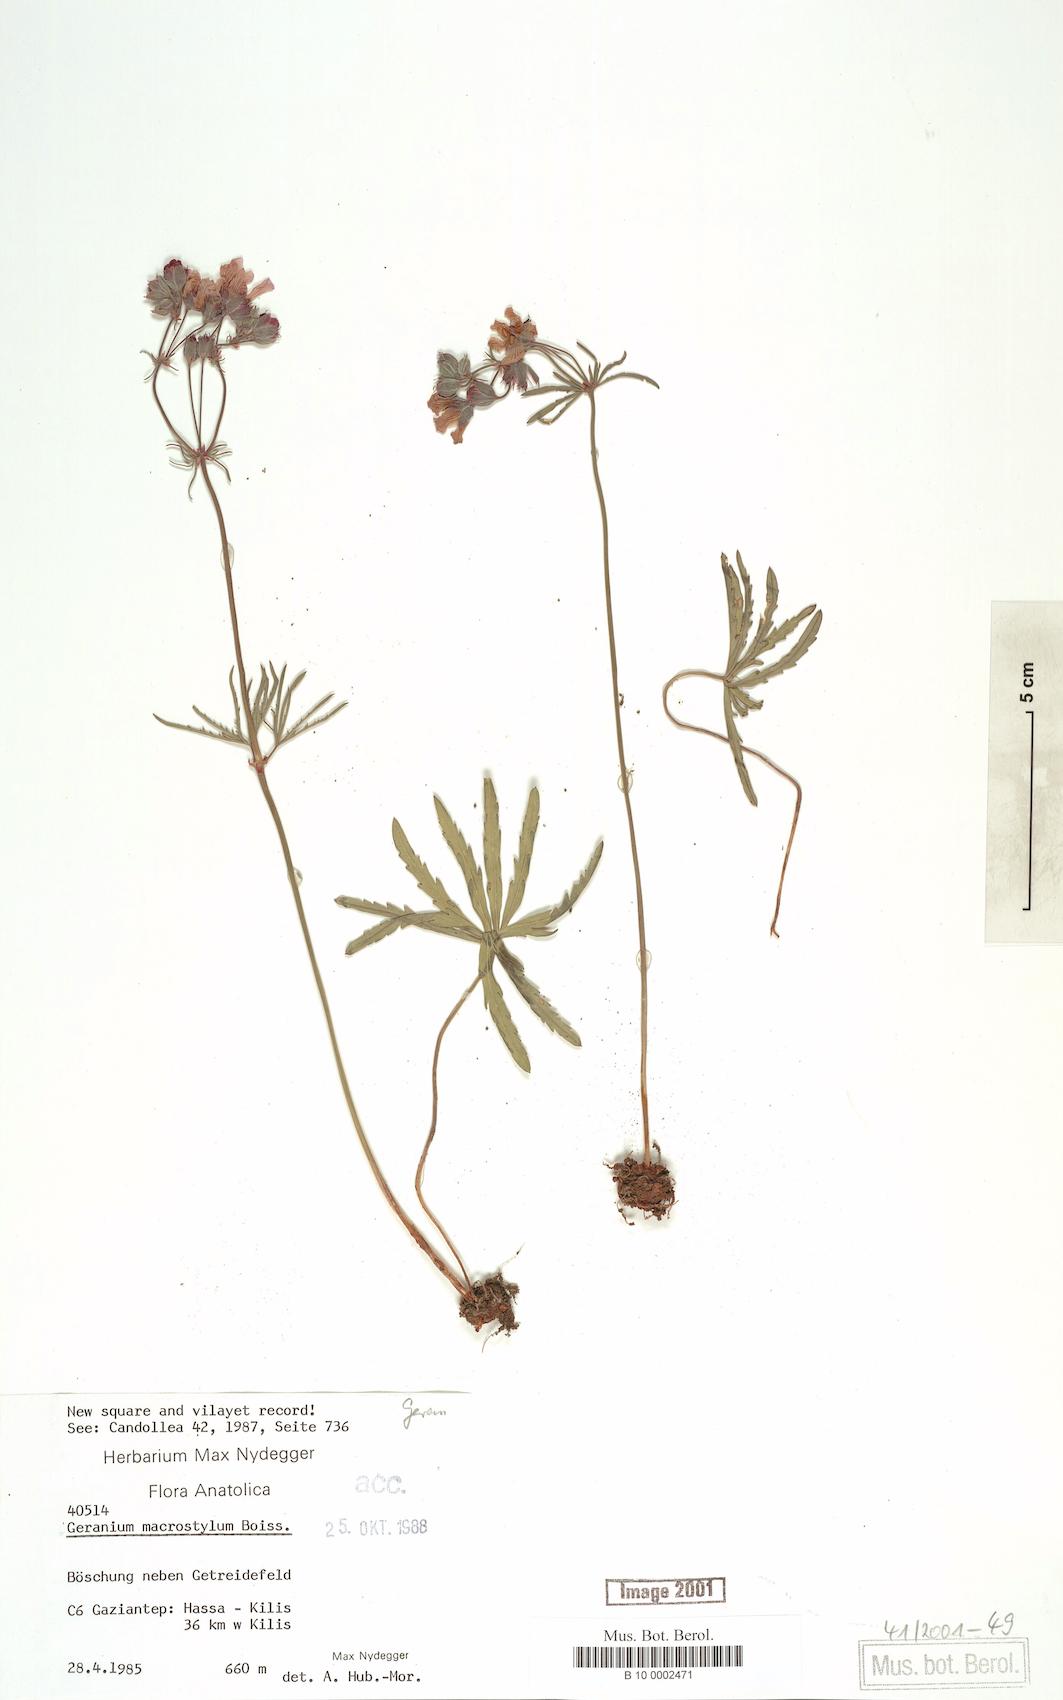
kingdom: Plantae
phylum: Tracheophyta
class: Magnoliopsida
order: Geraniales
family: Geraniaceae
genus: Geranium
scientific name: Geranium macrostylum
